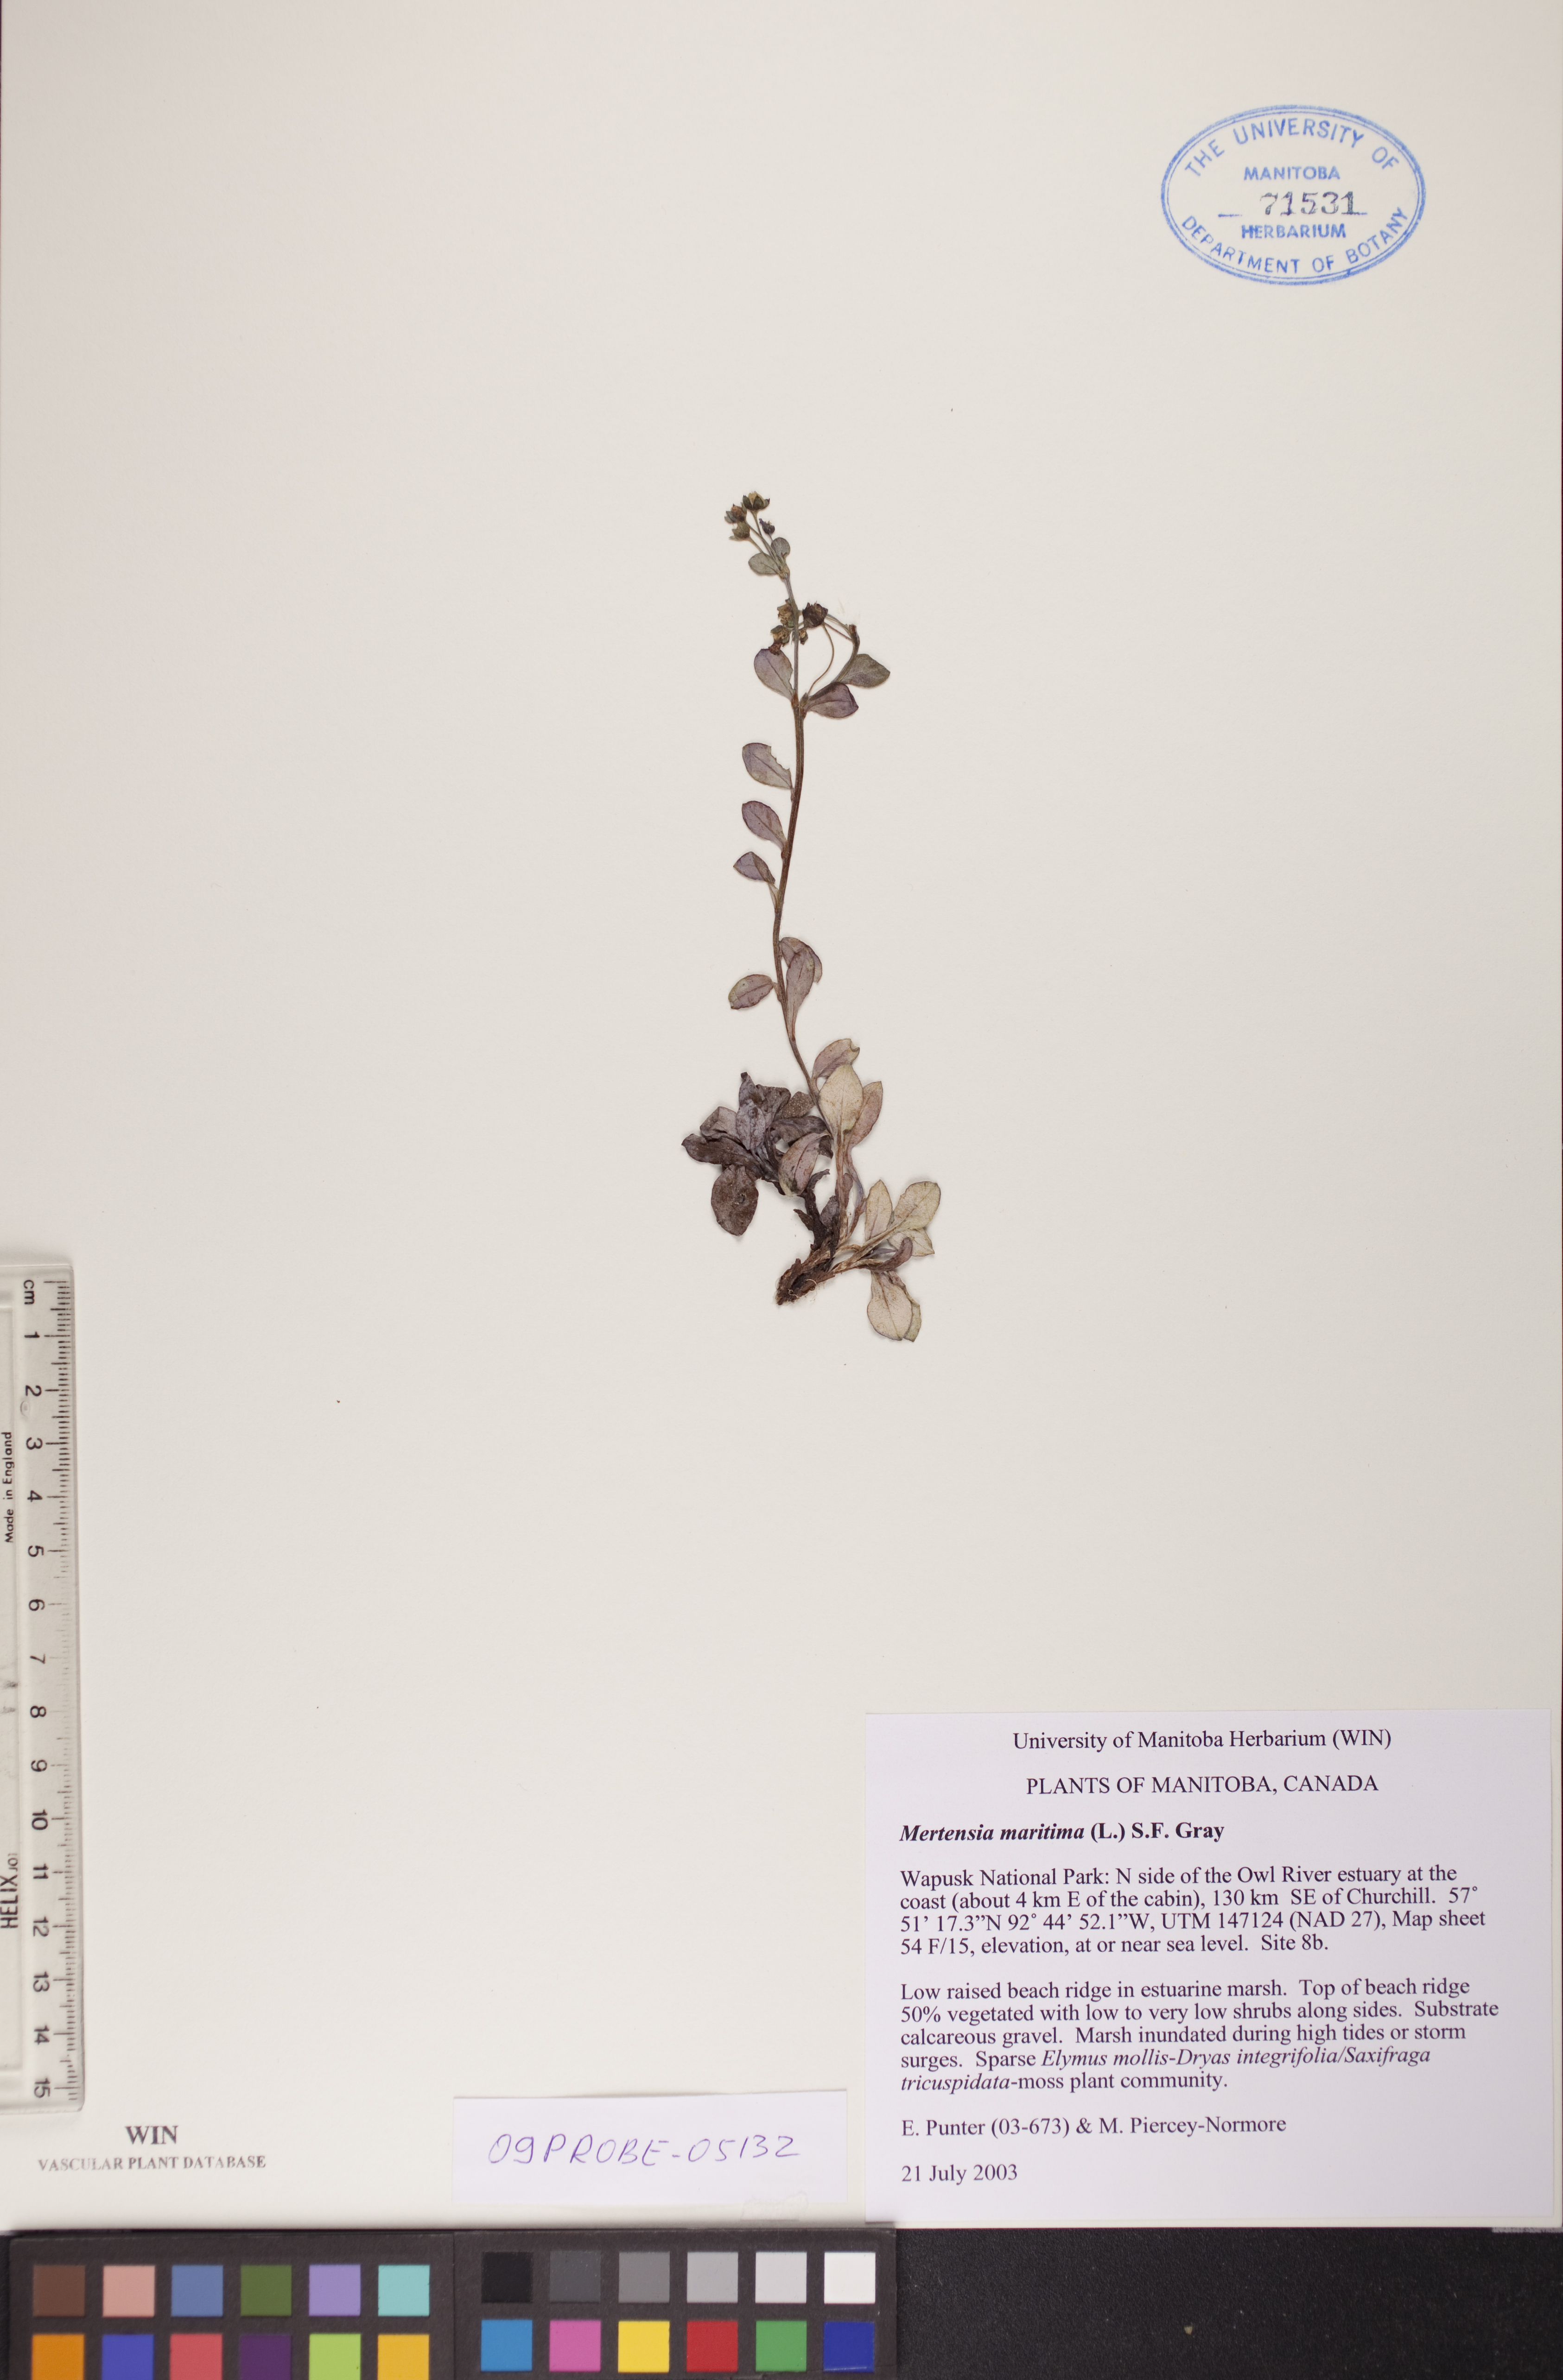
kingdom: Plantae
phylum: Tracheophyta
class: Magnoliopsida
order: Boraginales
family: Boraginaceae
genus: Mertensia
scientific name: Mertensia maritima
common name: Oysterplant
